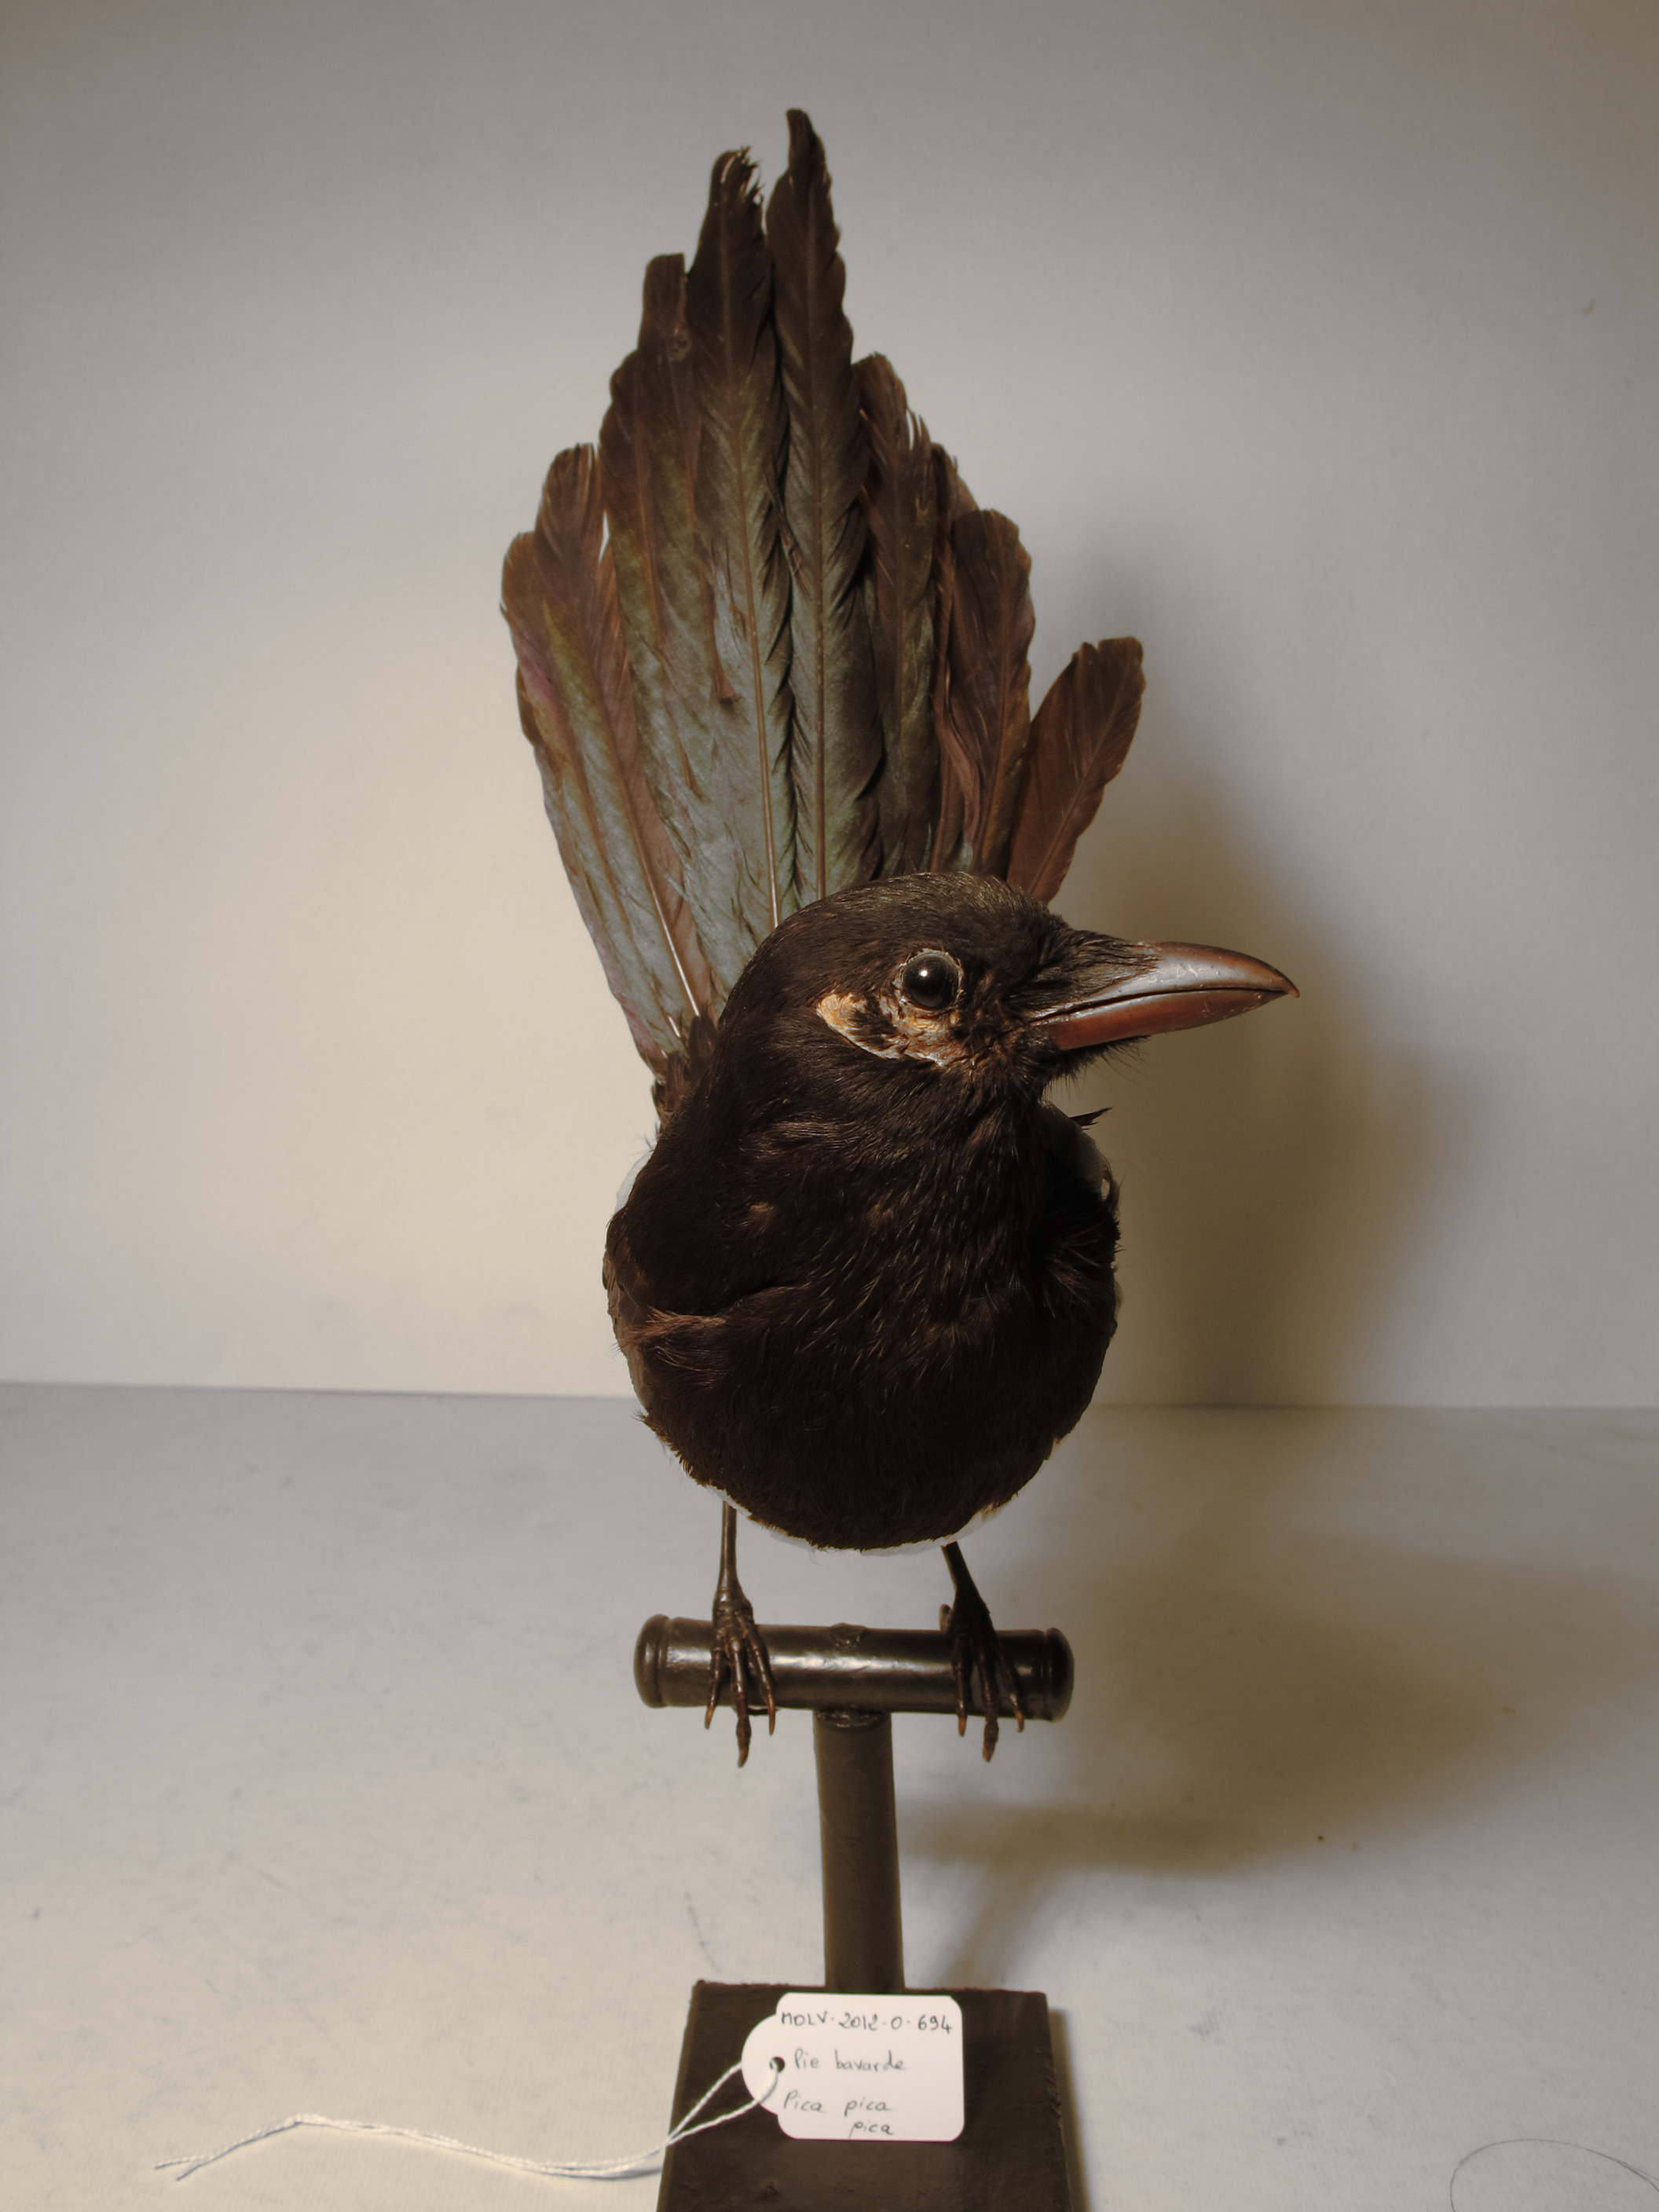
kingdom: Animalia
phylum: Chordata
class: Aves
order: Passeriformes
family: Corvidae
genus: Pica
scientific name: Pica pica
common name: Common Magpie
